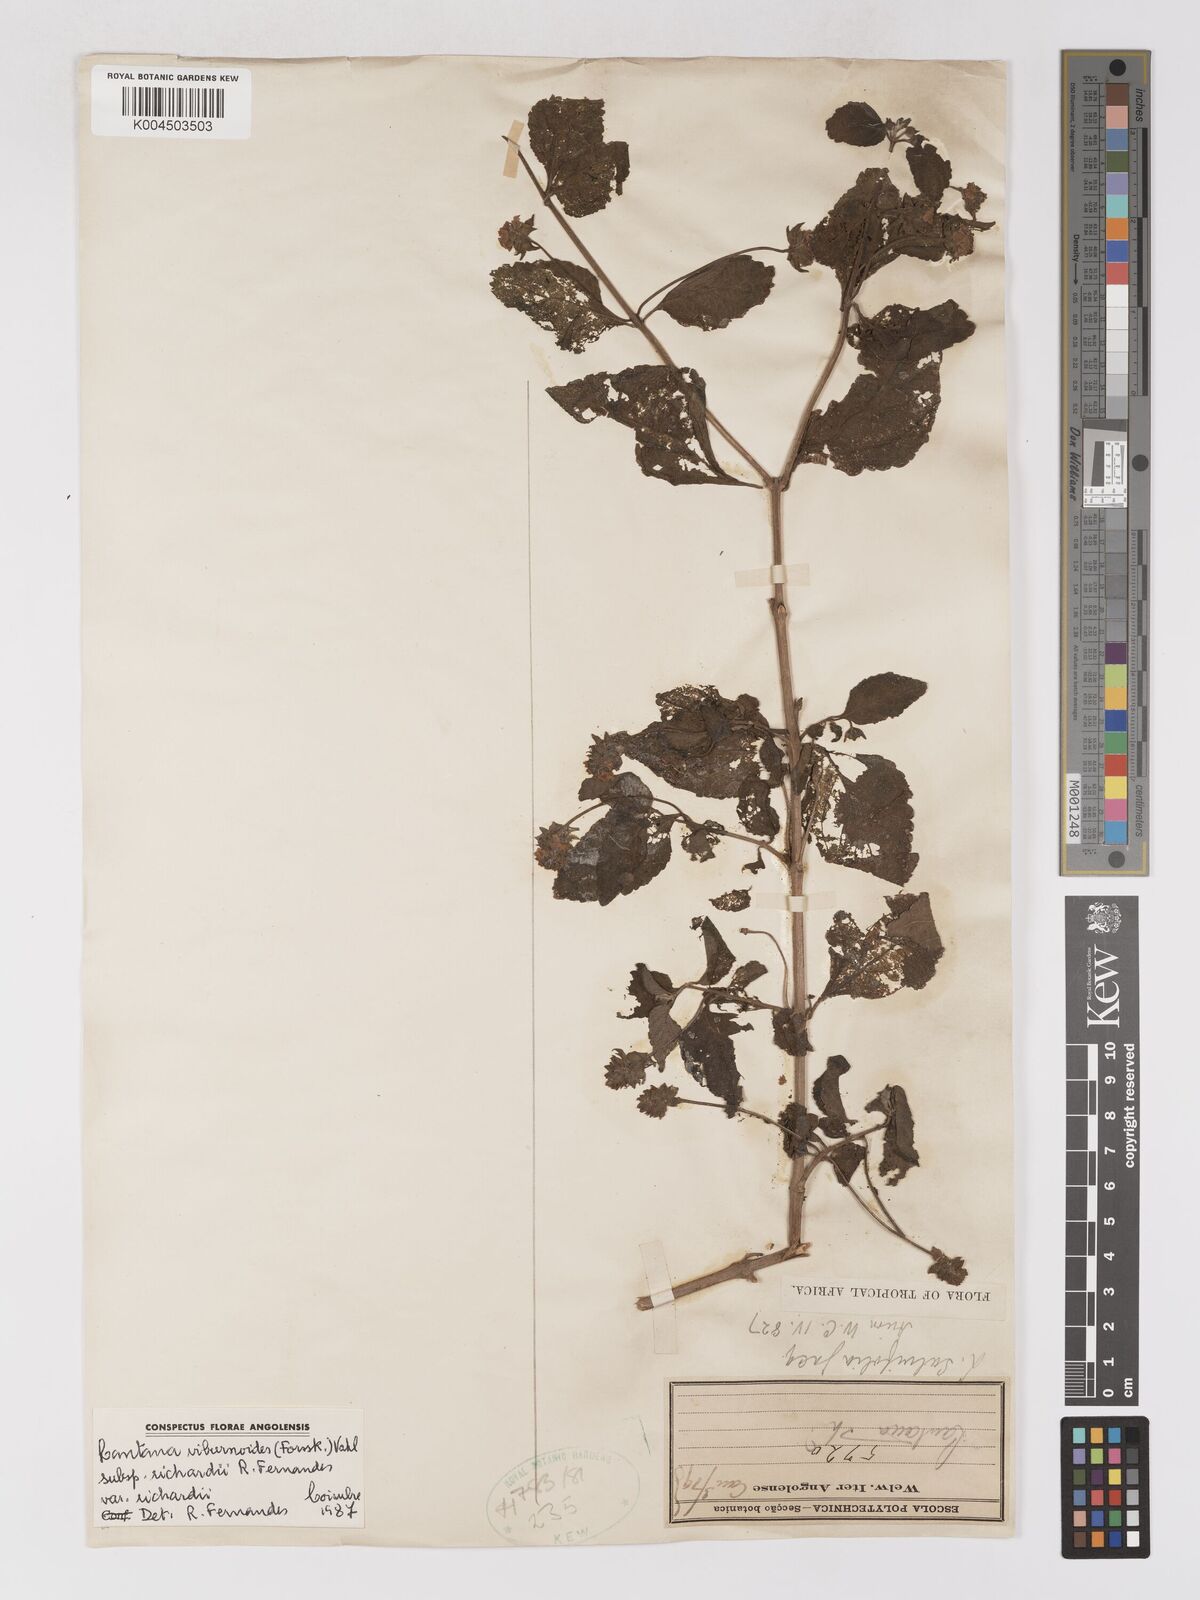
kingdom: Plantae
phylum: Tracheophyta
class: Magnoliopsida
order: Lamiales
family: Verbenaceae
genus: Lantana
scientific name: Lantana
